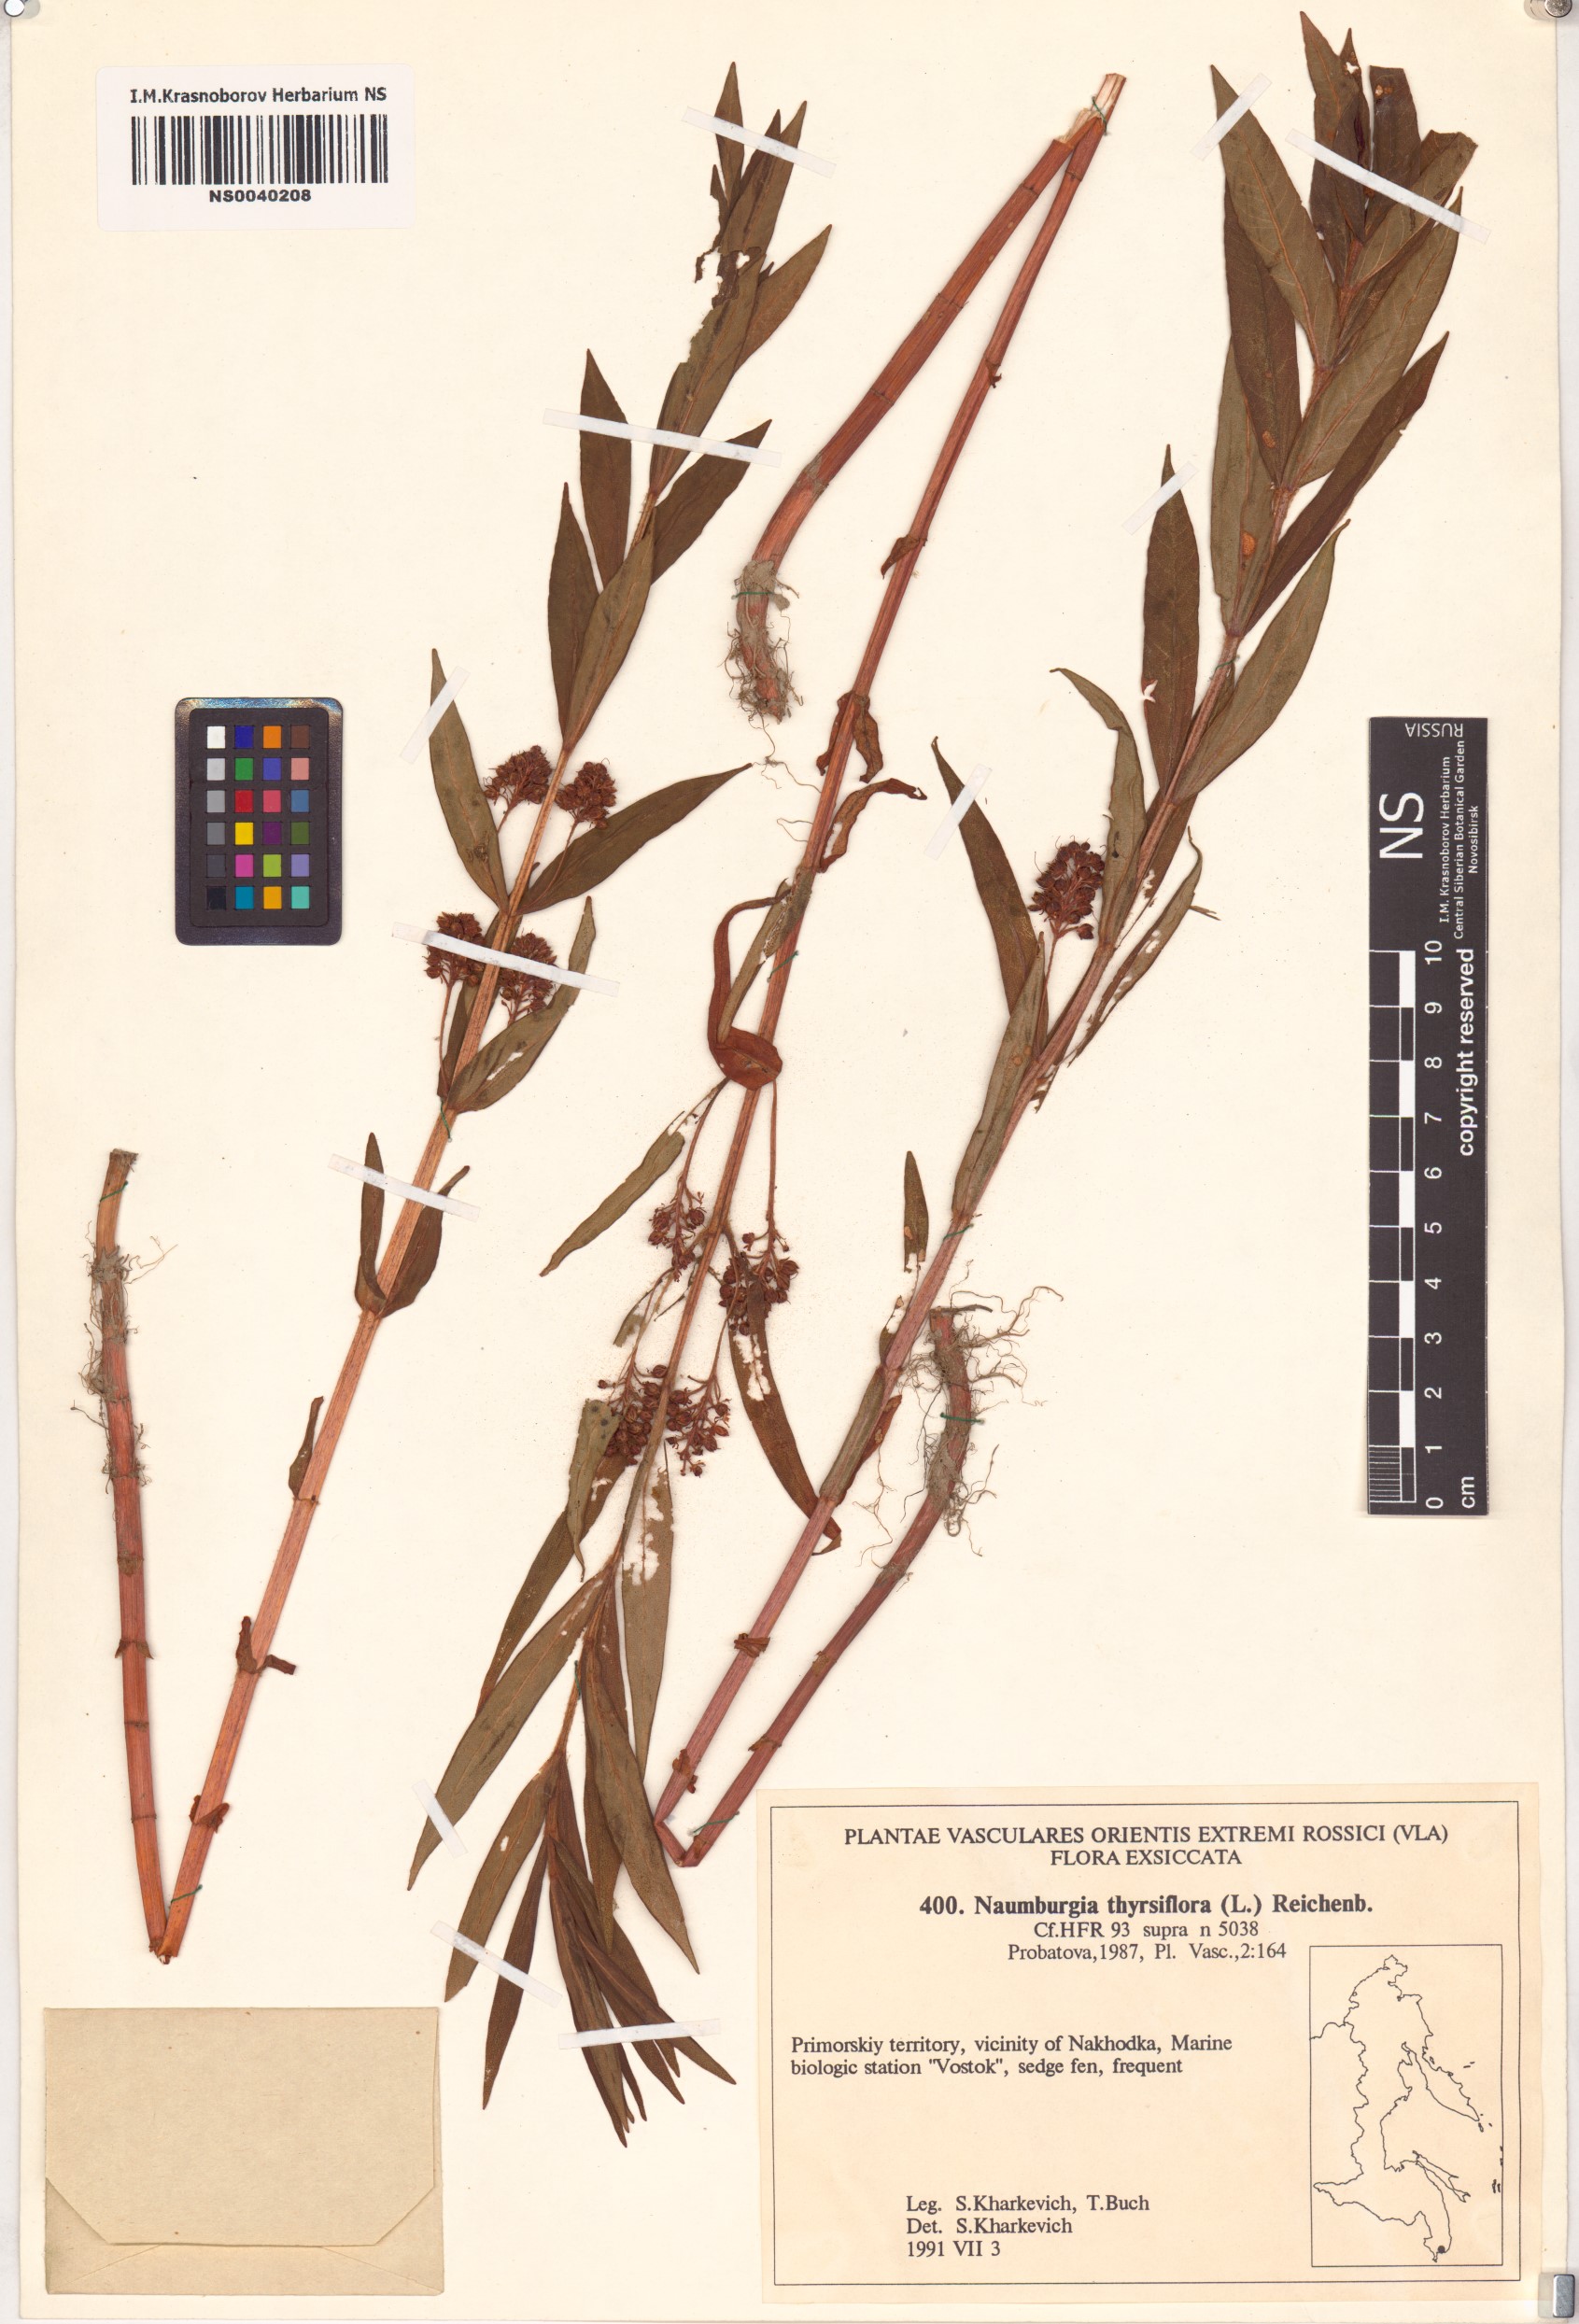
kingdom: Plantae
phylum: Tracheophyta
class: Magnoliopsida
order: Ericales
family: Primulaceae
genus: Lysimachia
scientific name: Lysimachia thyrsiflora
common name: Tufted loosestrife
